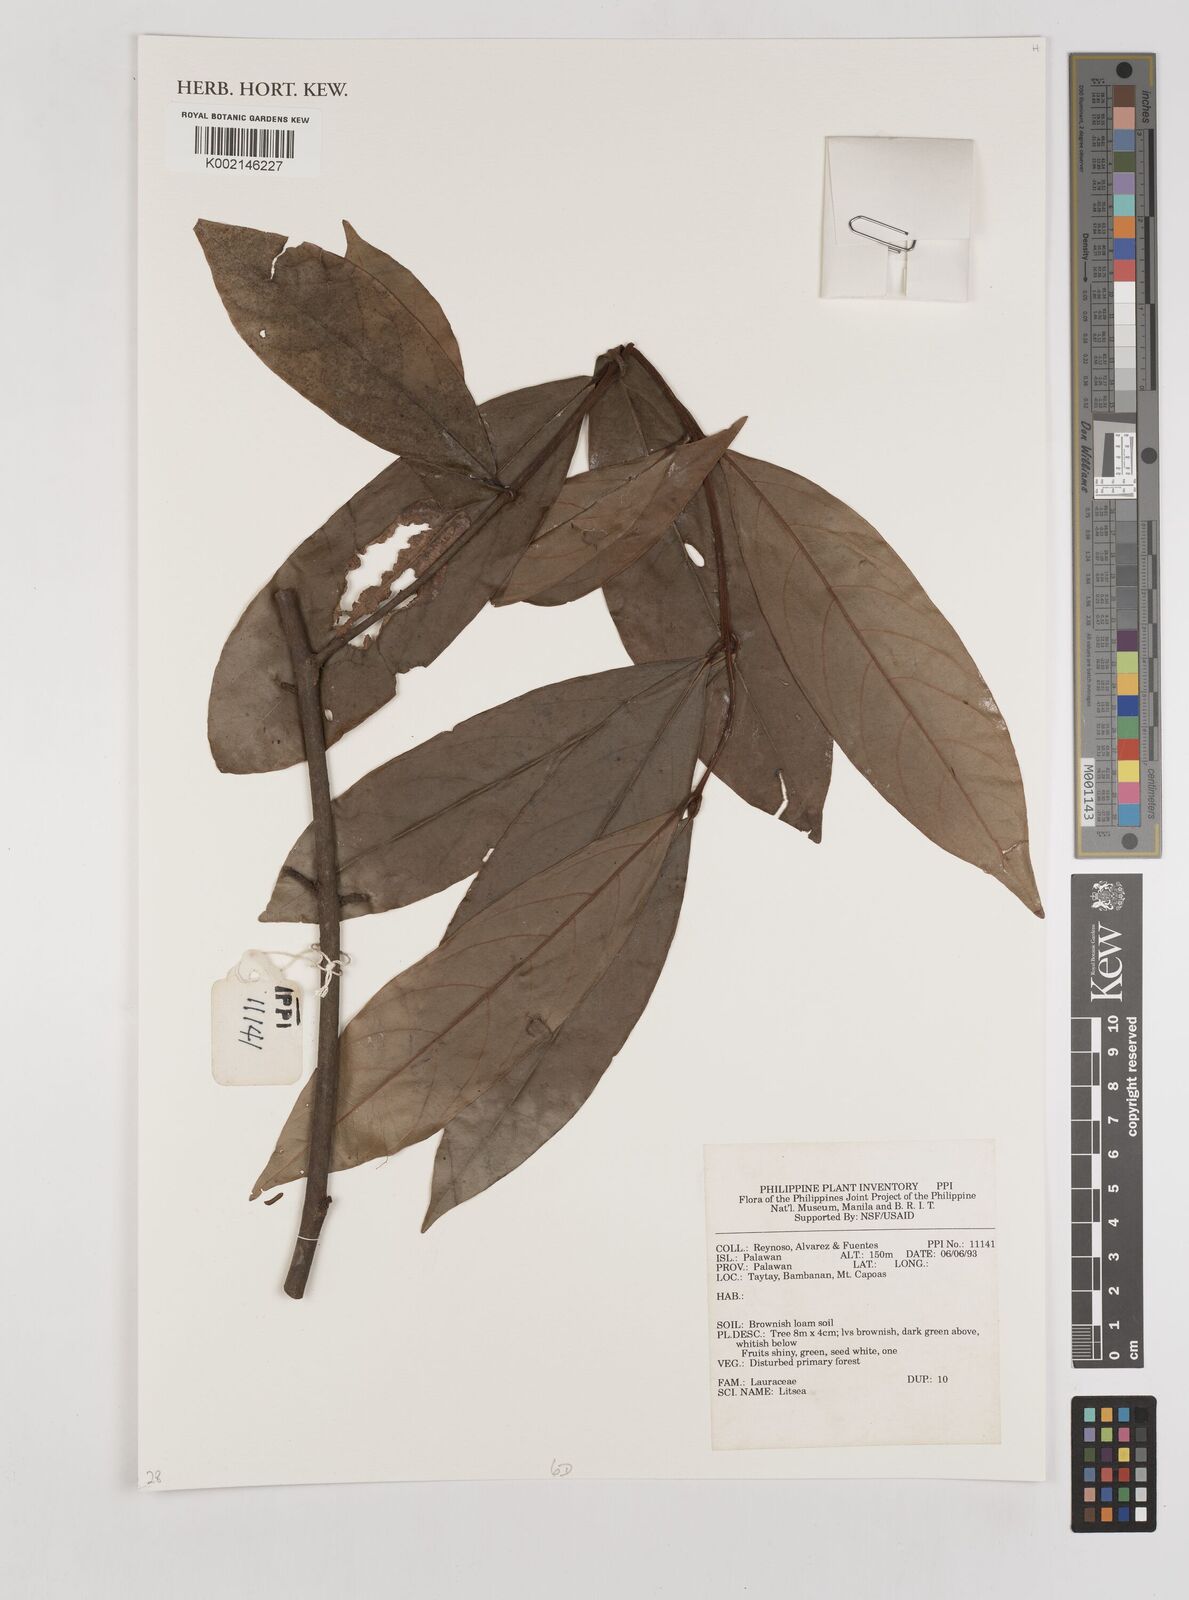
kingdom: Plantae
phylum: Tracheophyta
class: Magnoliopsida
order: Laurales
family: Lauraceae
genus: Litsea
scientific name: Litsea
